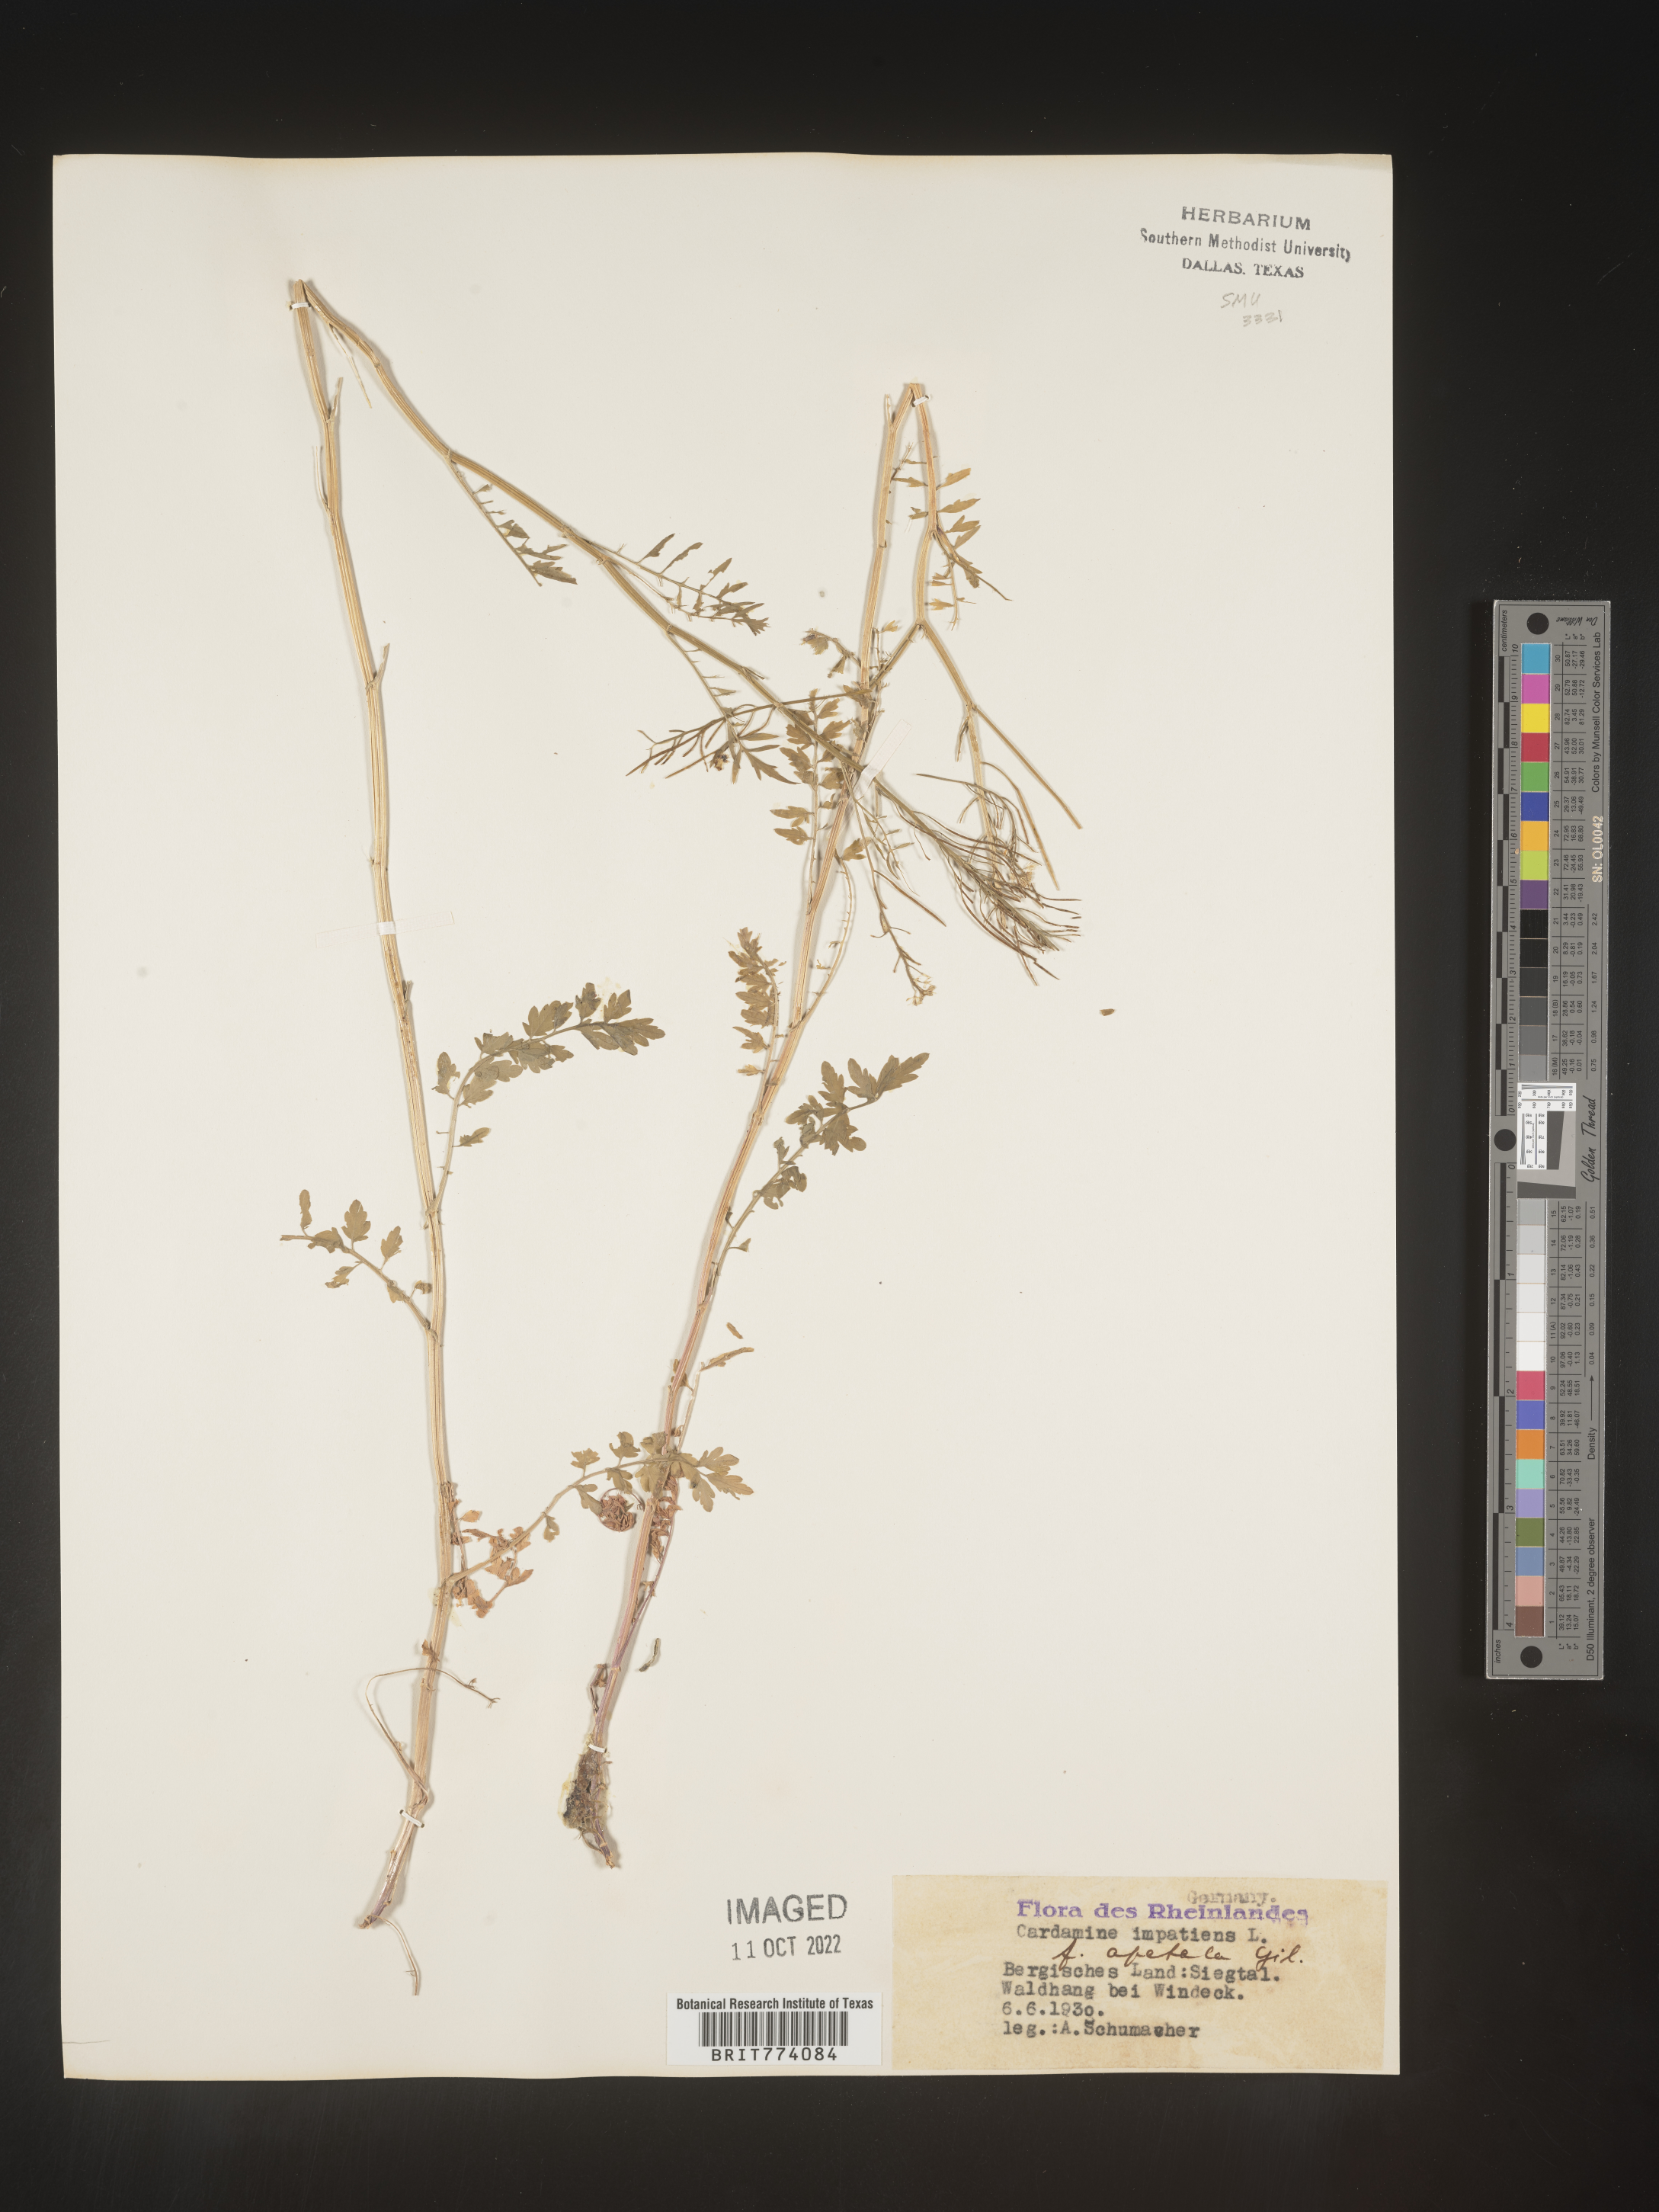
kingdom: Plantae
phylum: Tracheophyta
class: Magnoliopsida
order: Brassicales
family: Brassicaceae
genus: Cardamine
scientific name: Cardamine
